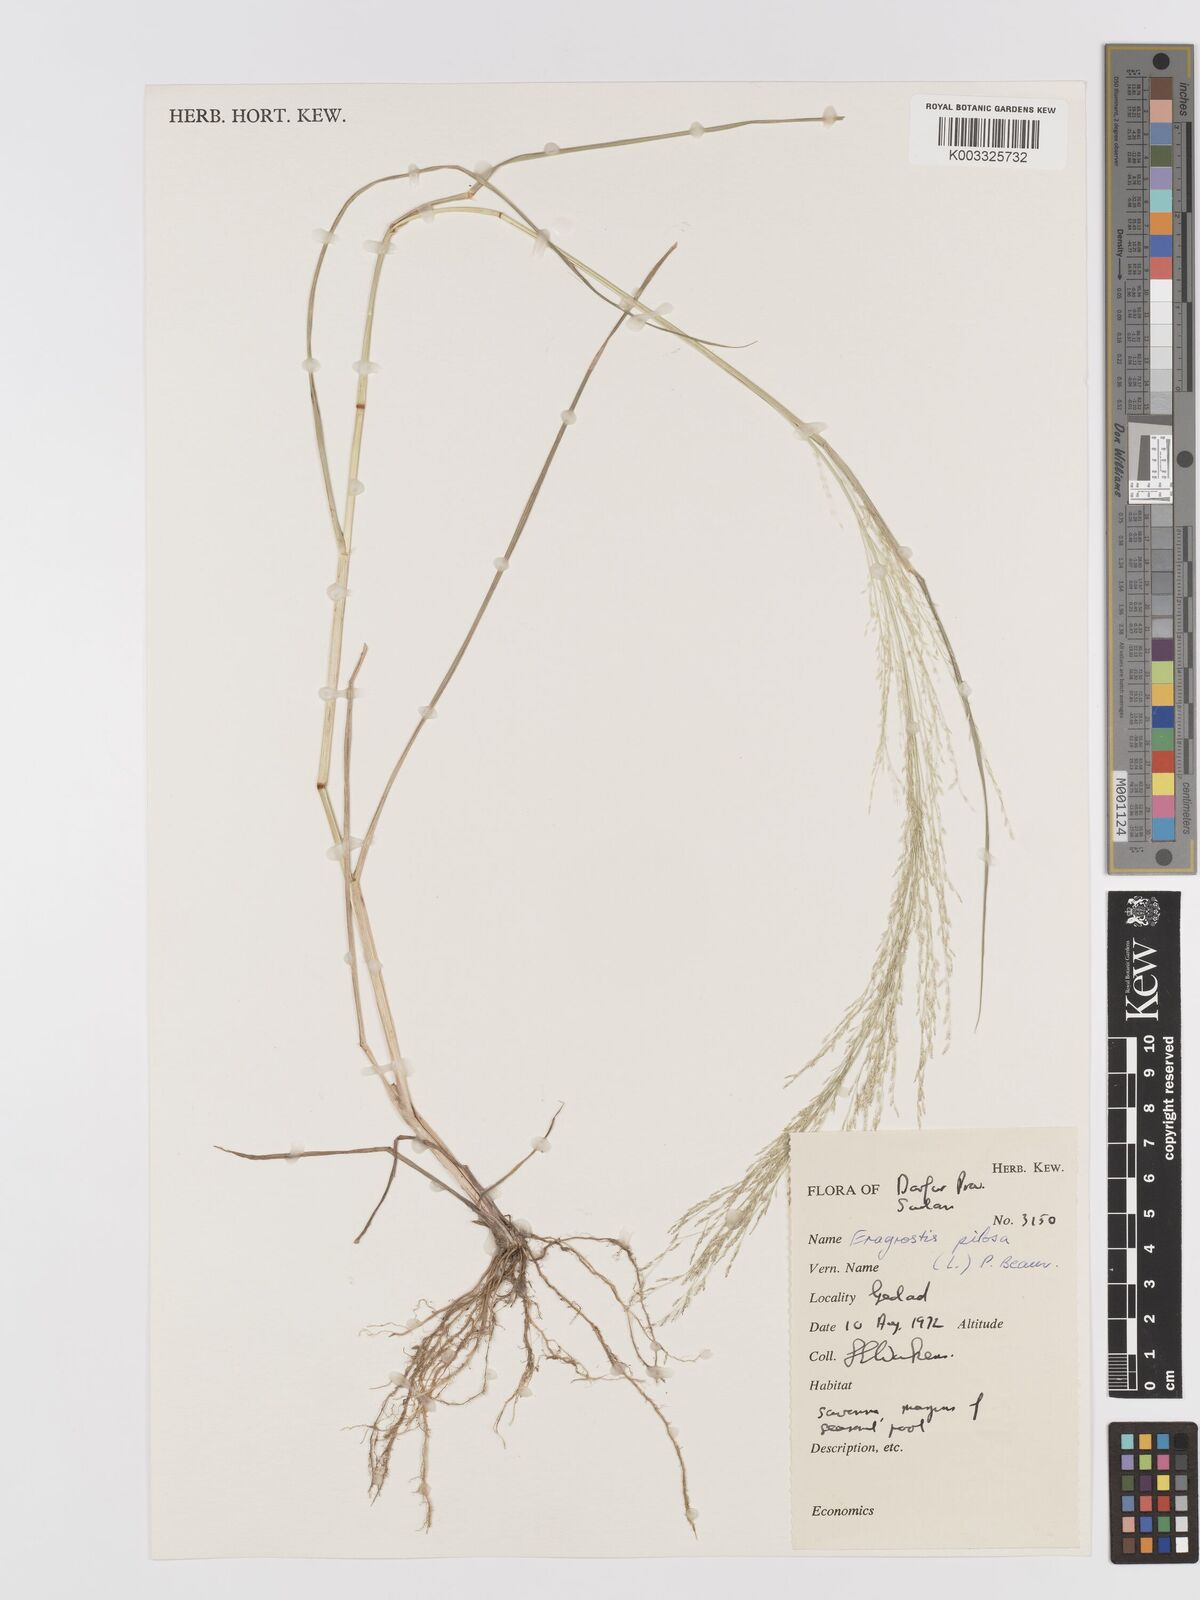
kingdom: Plantae
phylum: Tracheophyta
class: Liliopsida
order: Poales
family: Poaceae
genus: Eragrostis
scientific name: Eragrostis pilosa
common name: Indian lovegrass
